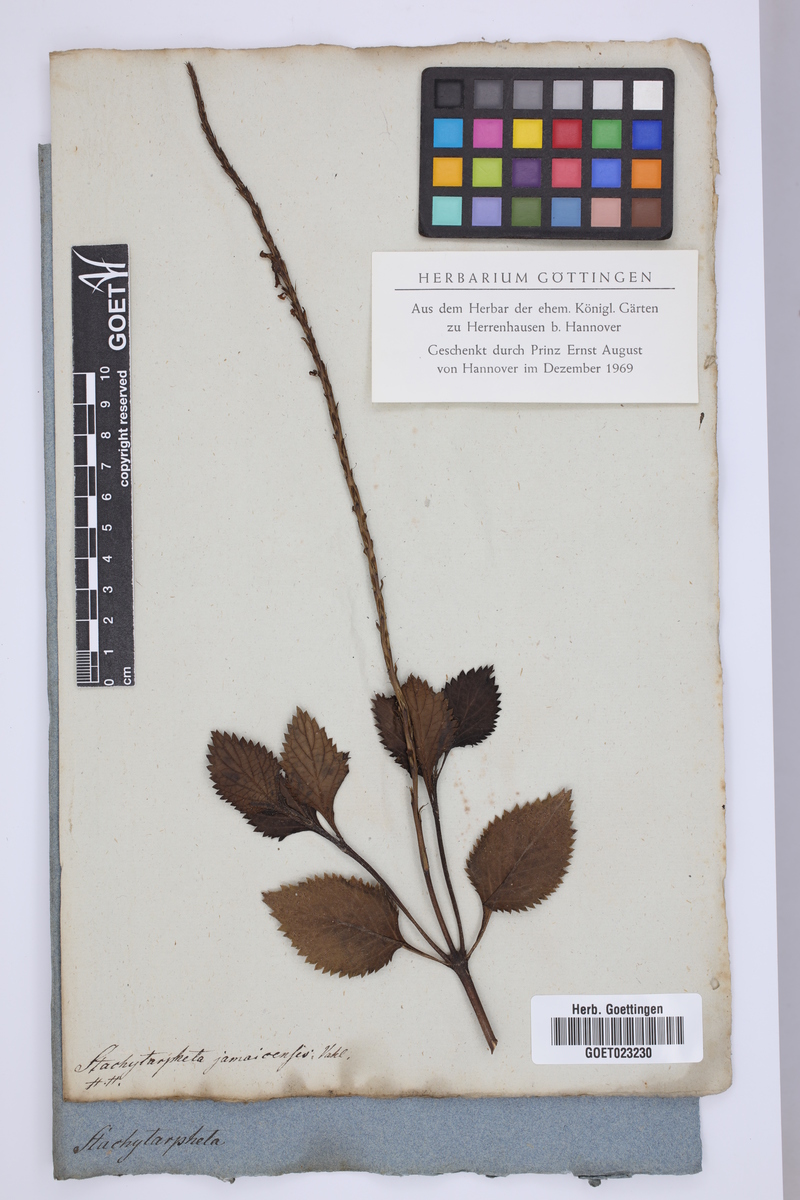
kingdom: Plantae
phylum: Tracheophyta
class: Magnoliopsida
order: Lamiales
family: Verbenaceae
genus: Stachytarpheta
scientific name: Stachytarpheta jamaicensis
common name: Light-blue snakeweed
